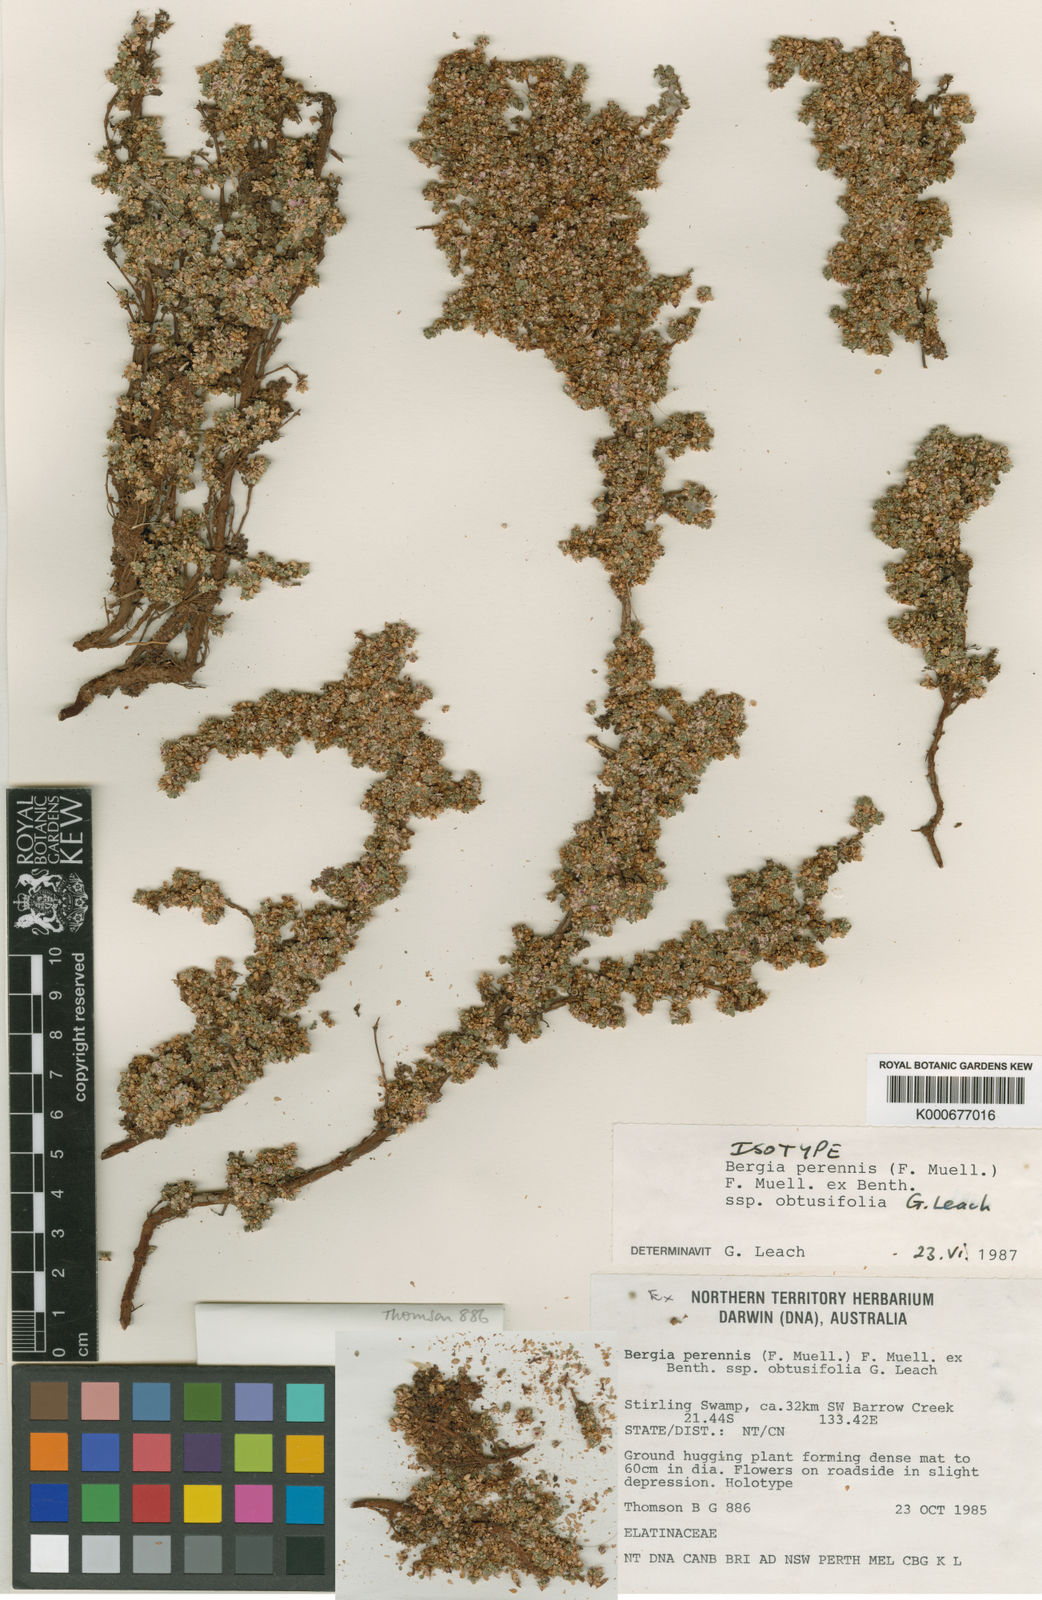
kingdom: Plantae
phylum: Tracheophyta
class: Magnoliopsida
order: Malpighiales
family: Elatinaceae
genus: Bergia
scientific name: Bergia perennis
